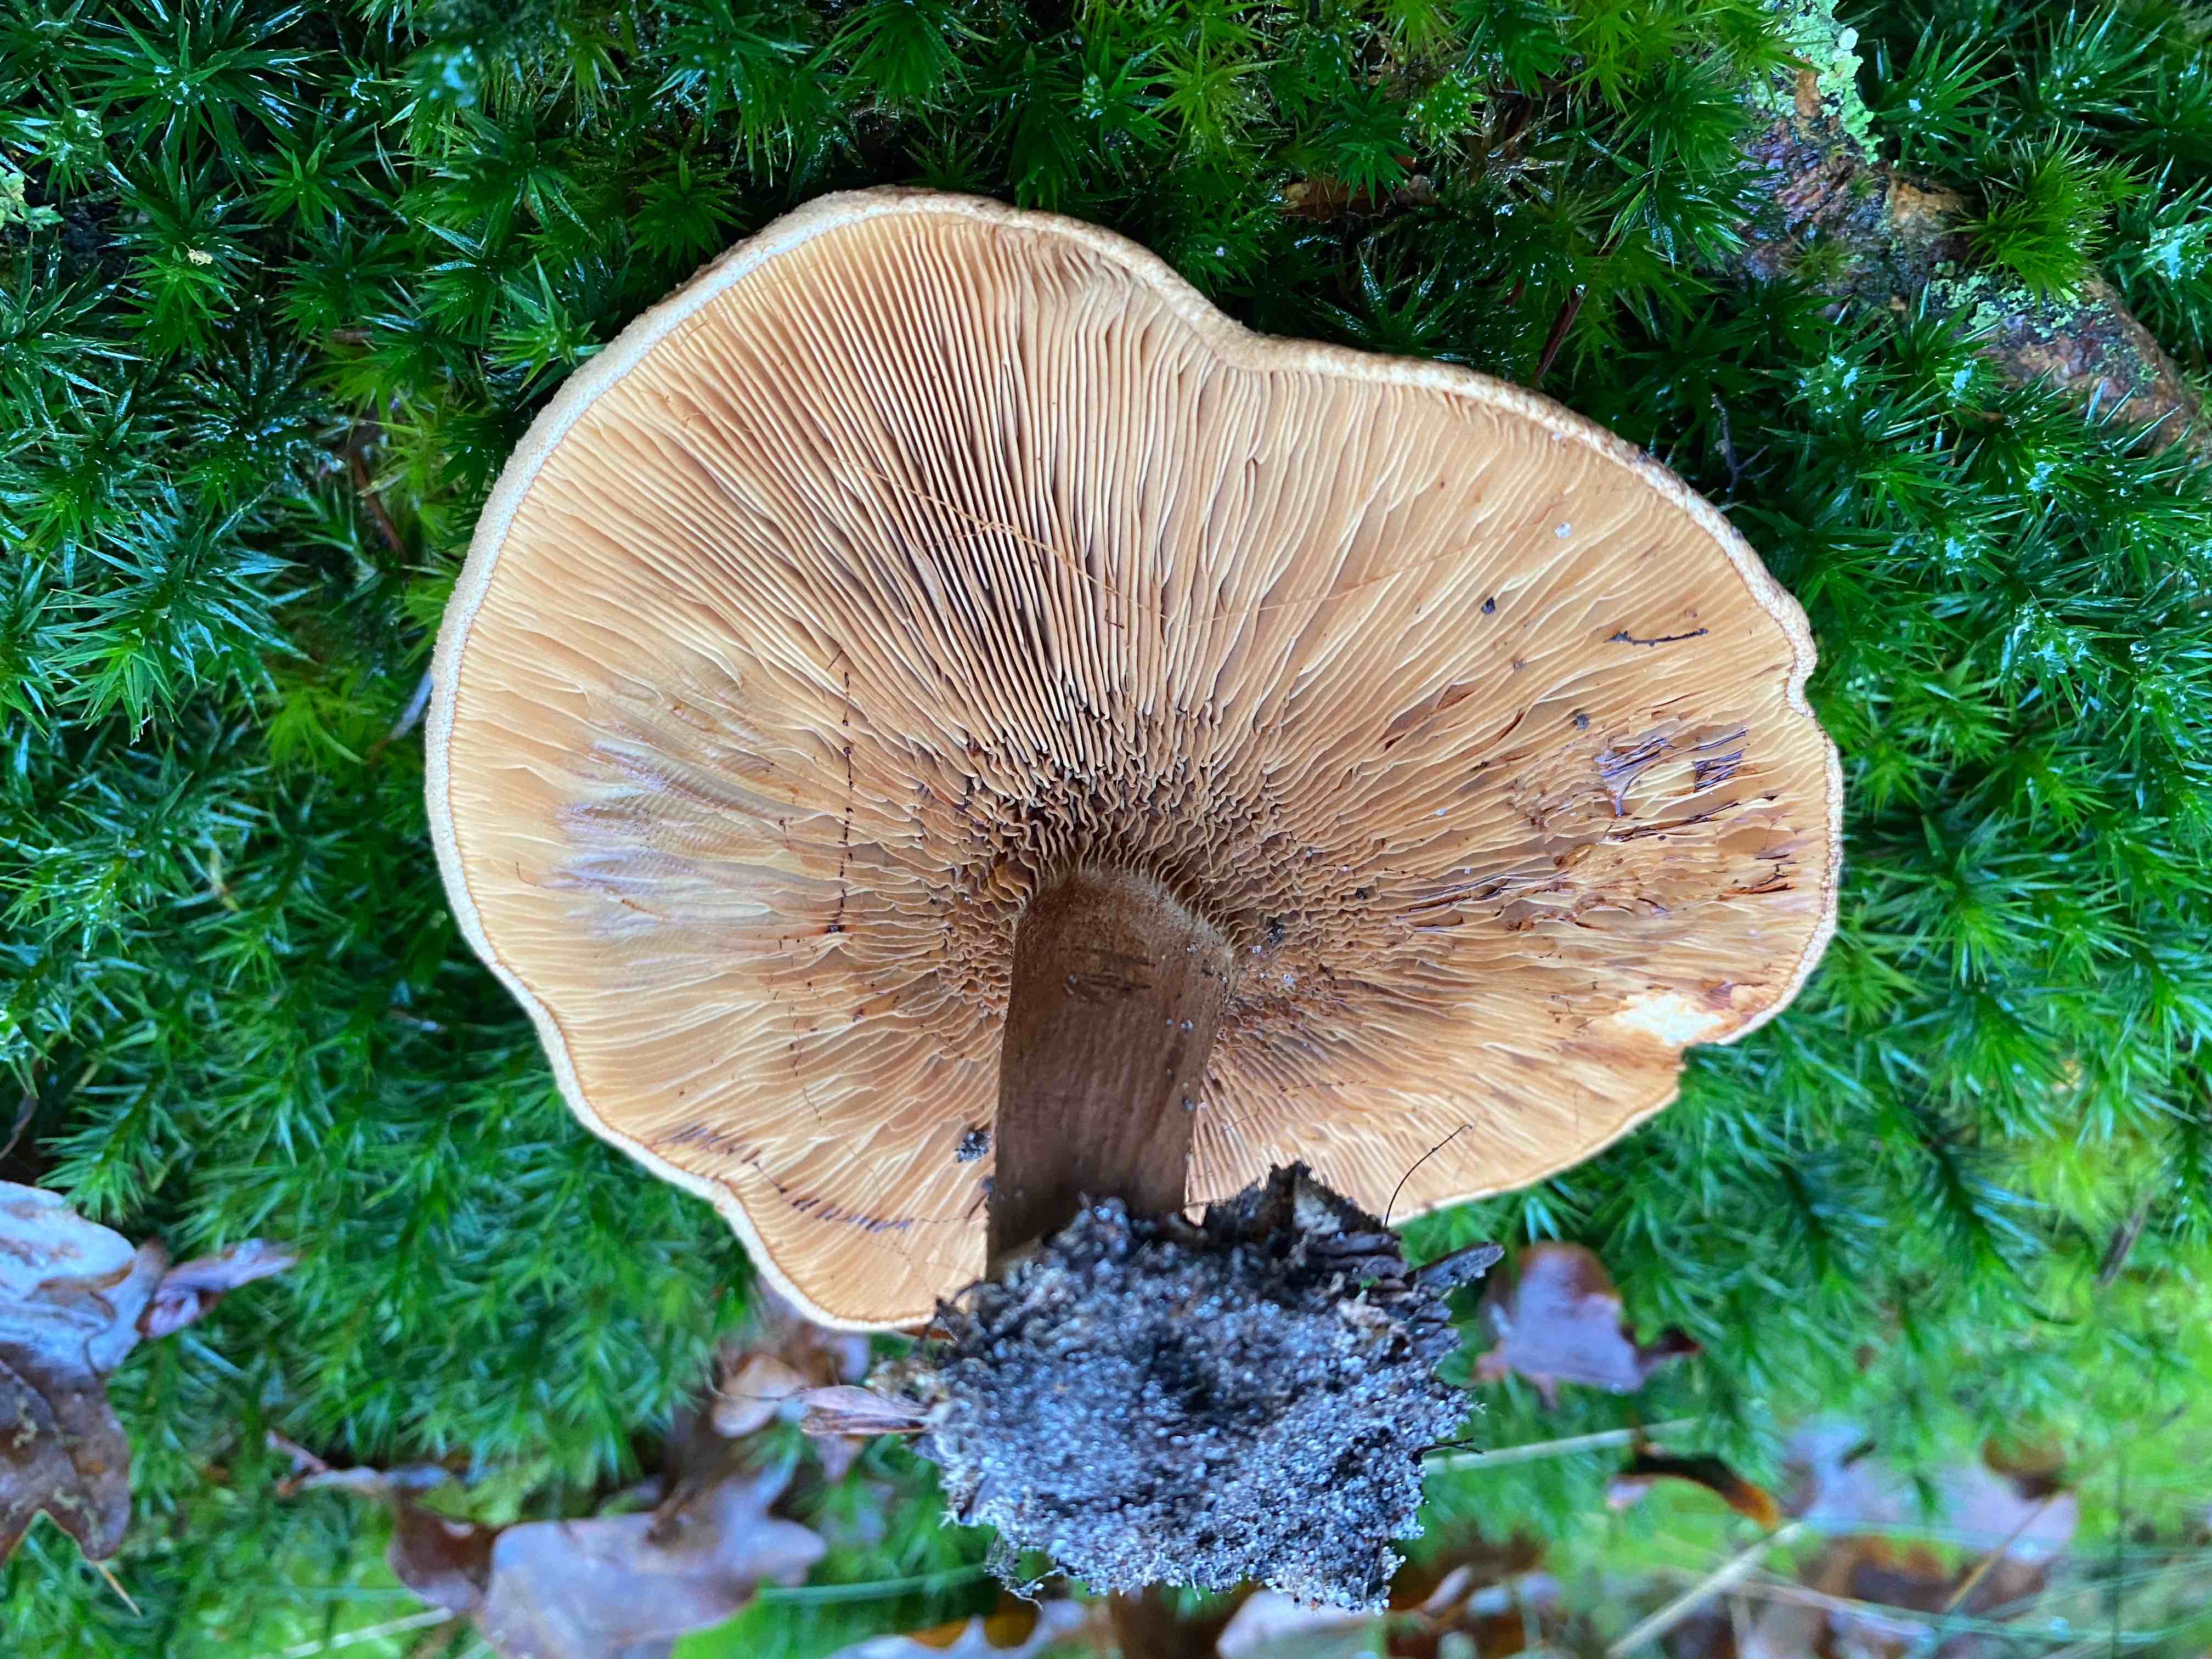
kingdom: Fungi
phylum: Basidiomycota
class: Agaricomycetes
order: Boletales
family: Paxillaceae
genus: Paxillus
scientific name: Paxillus involutus
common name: almindelig netbladhat
